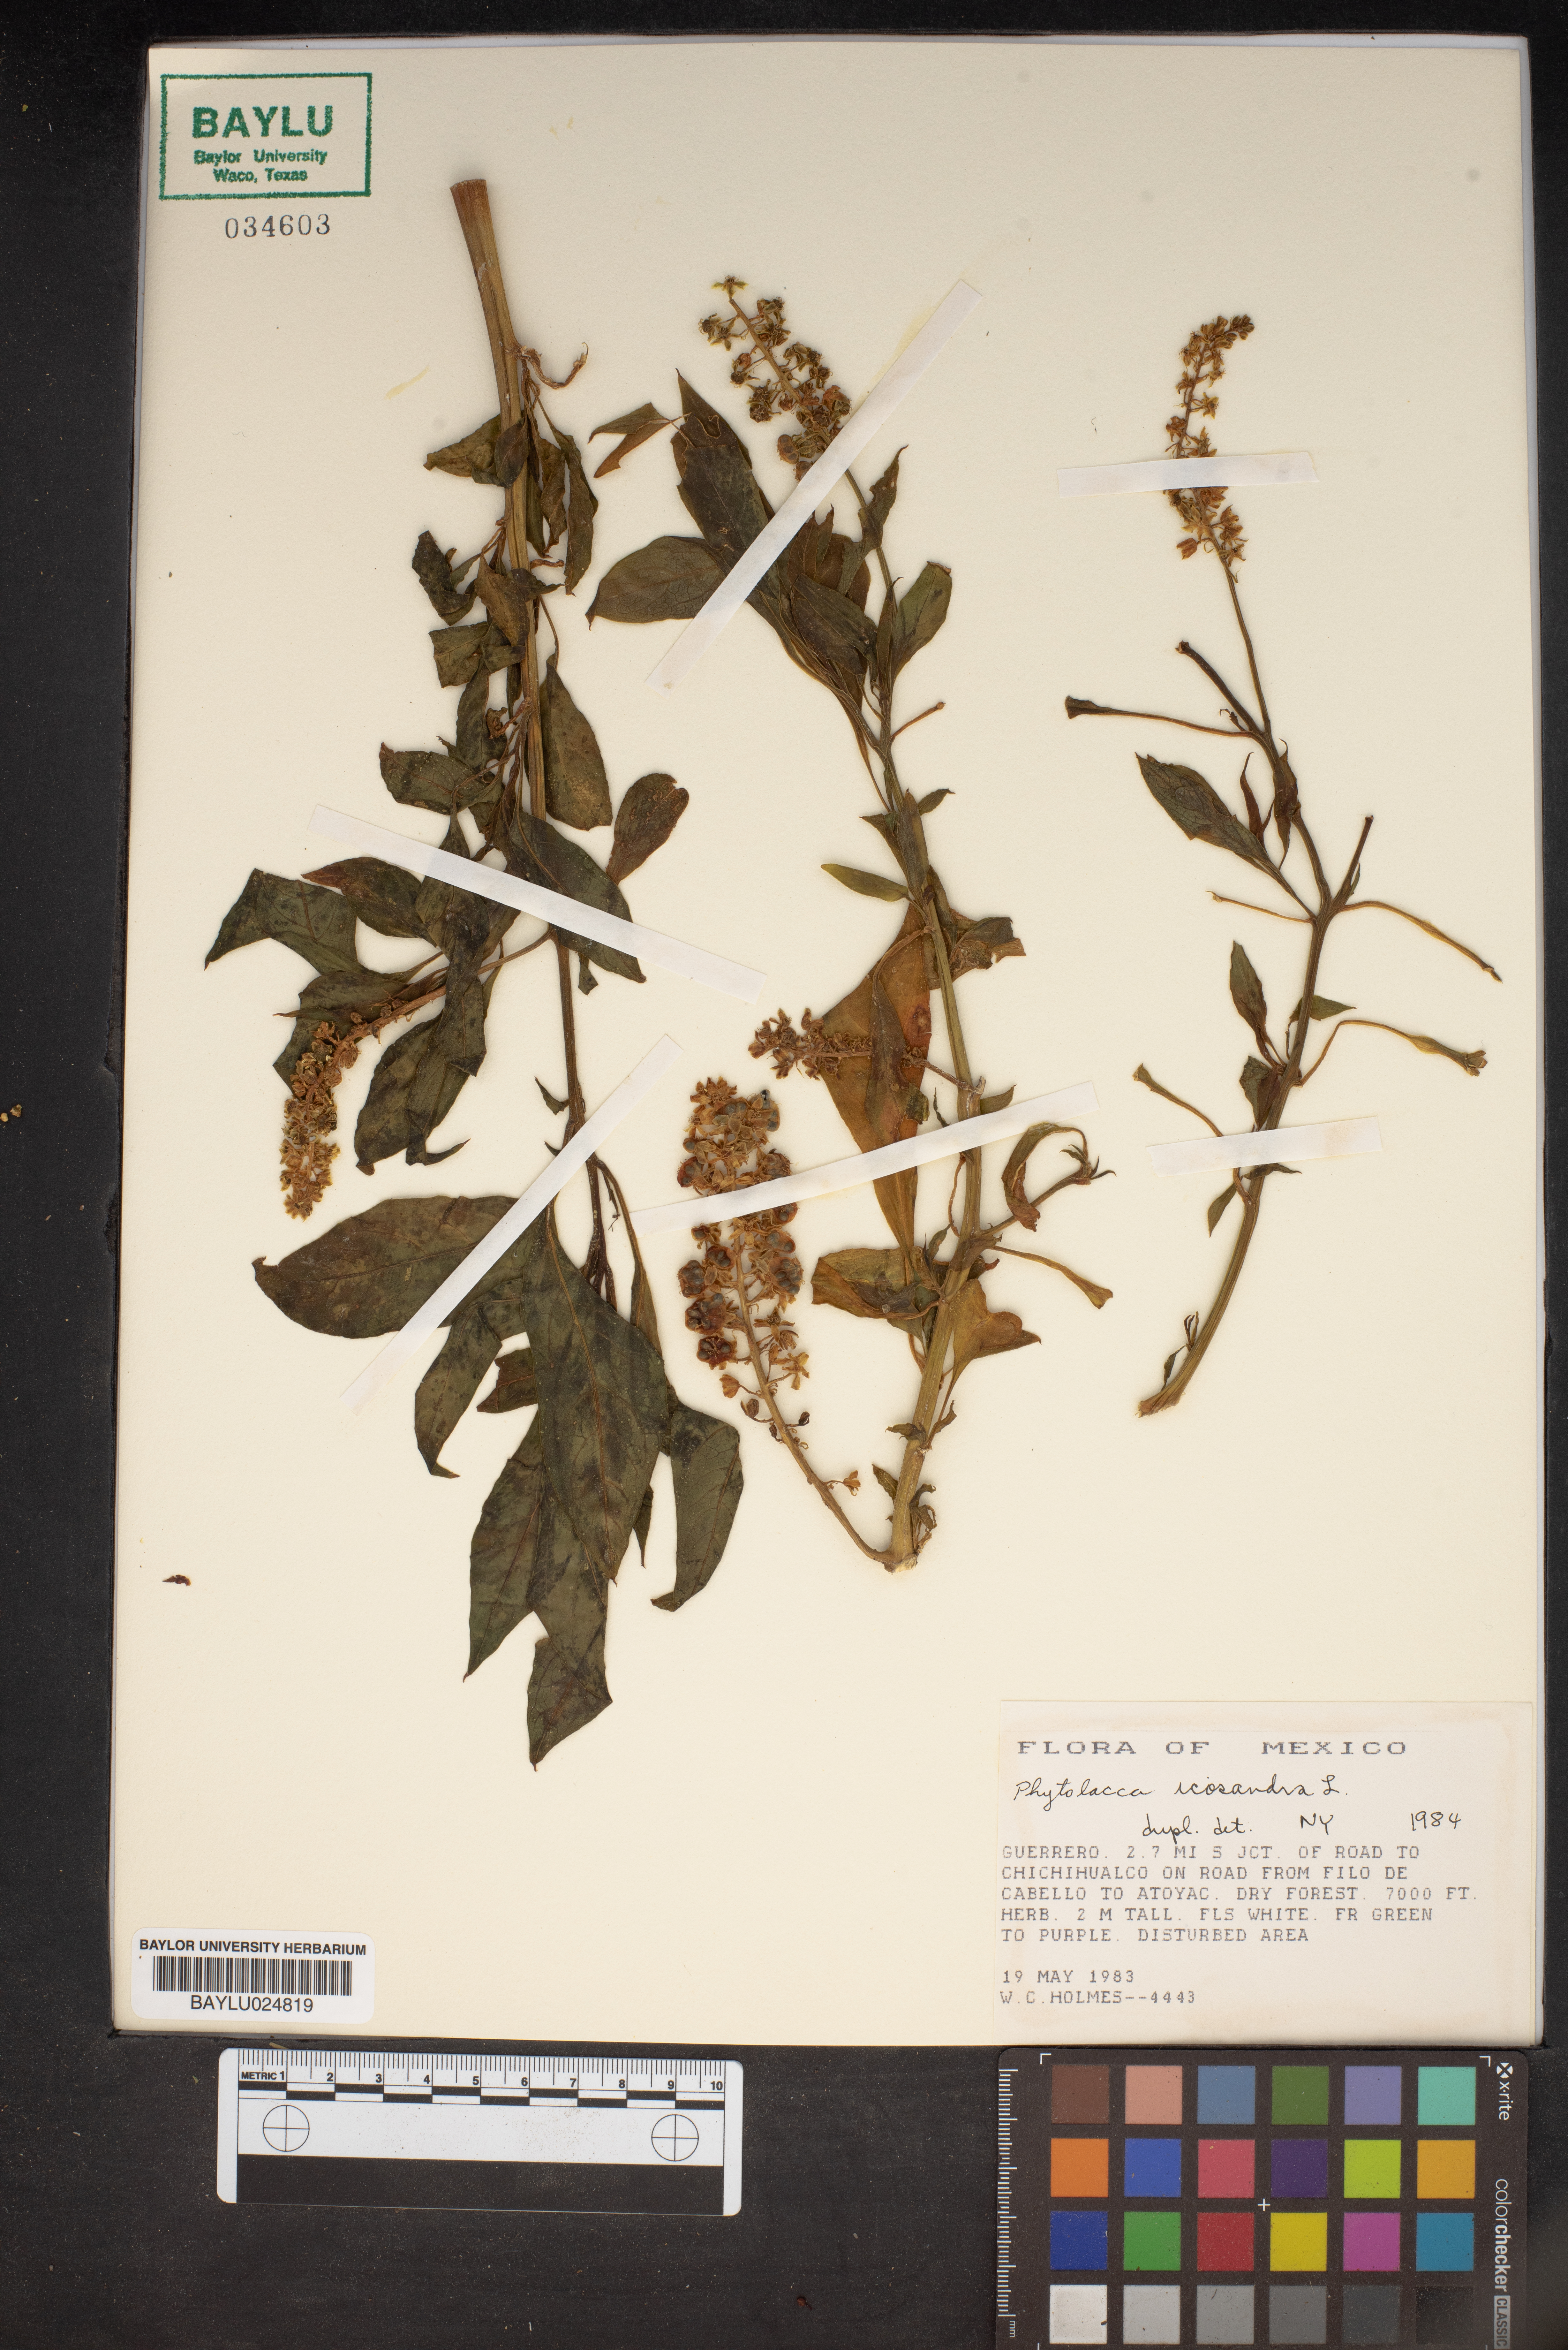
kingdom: Plantae
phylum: Tracheophyta
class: Magnoliopsida
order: Caryophyllales
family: Phytolaccaceae
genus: Phytolacca
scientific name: Phytolacca icosandra
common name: Button pokeweed
